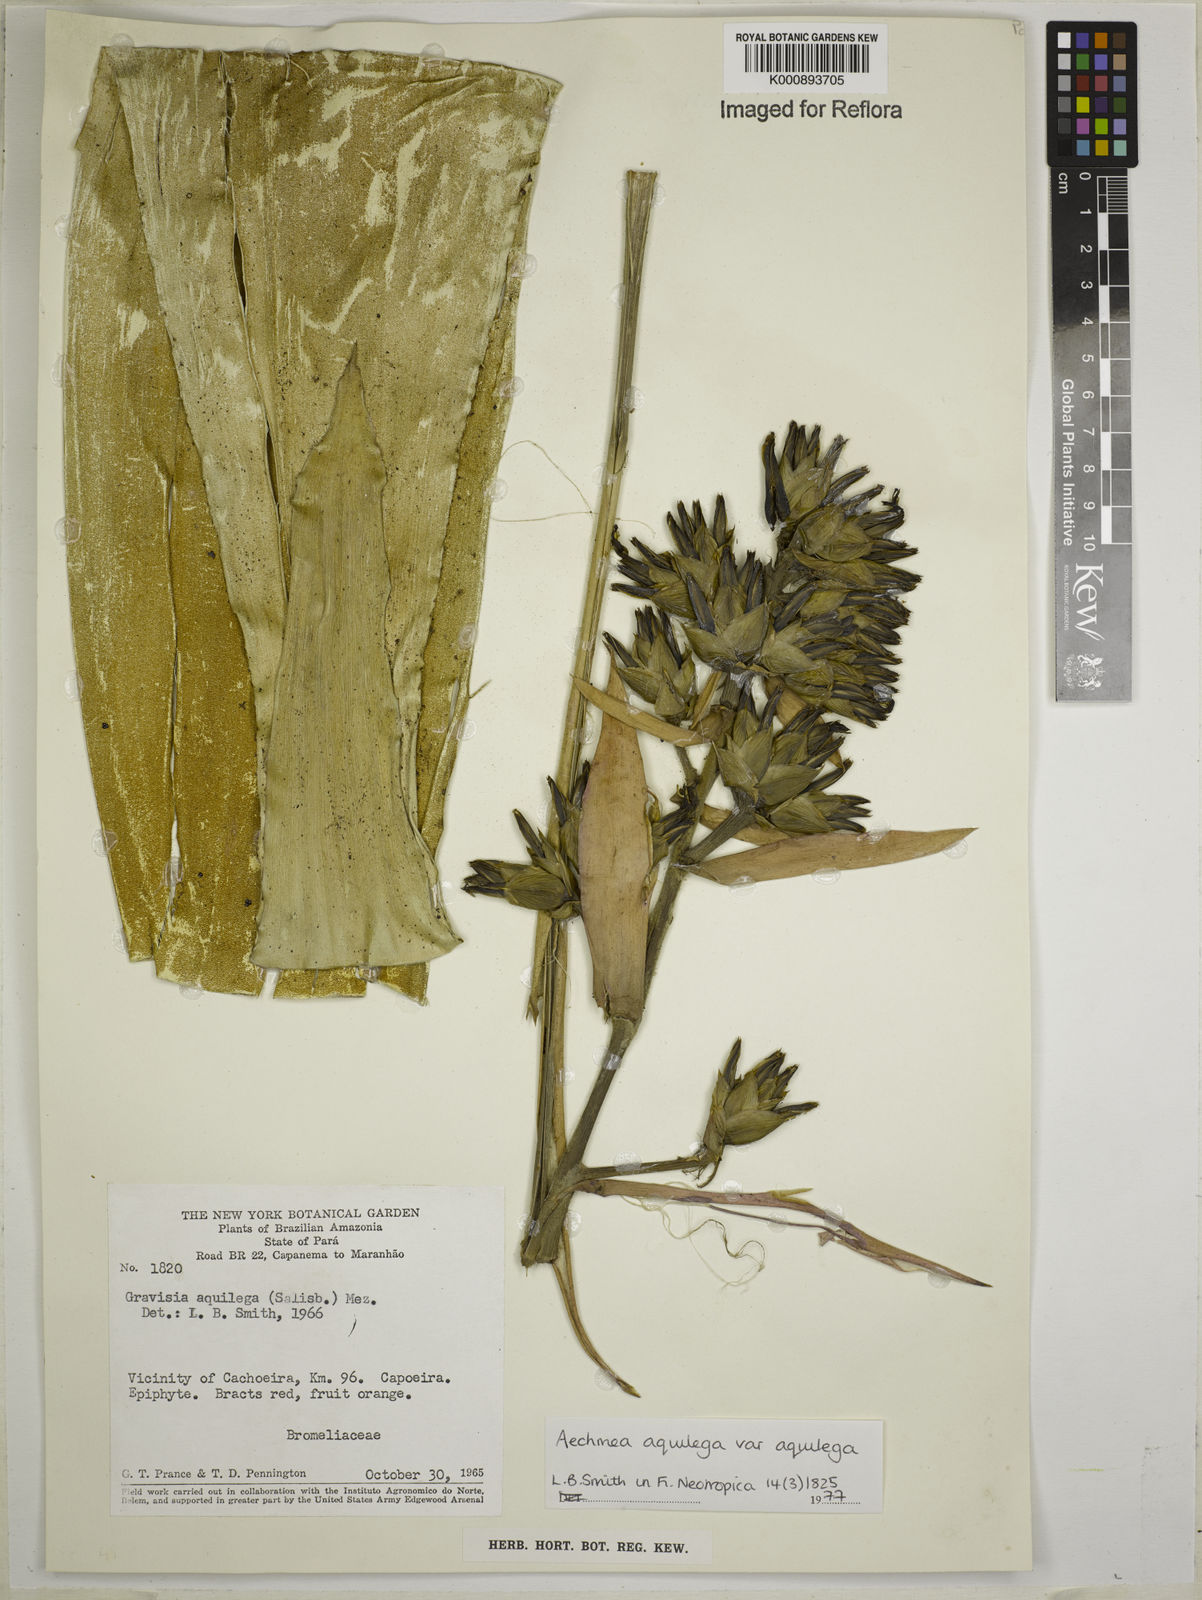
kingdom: Plantae
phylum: Tracheophyta
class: Liliopsida
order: Poales
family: Bromeliaceae
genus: Aechmea
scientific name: Aechmea aquilega
